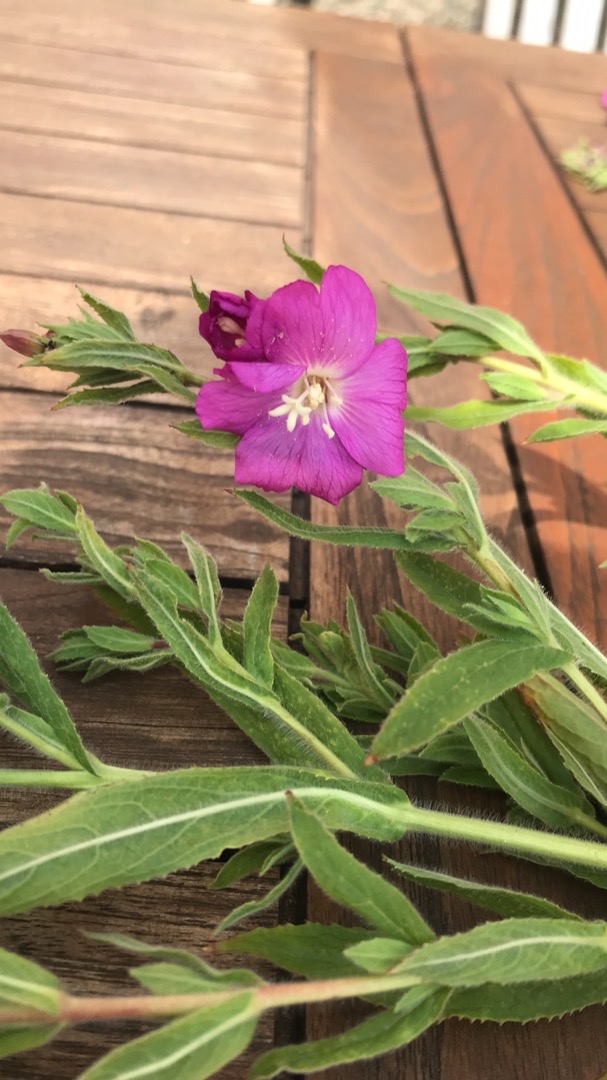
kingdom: Plantae
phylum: Tracheophyta
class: Magnoliopsida
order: Myrtales
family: Onagraceae
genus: Epilobium
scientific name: Epilobium hirsutum
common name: Lådden dueurt
